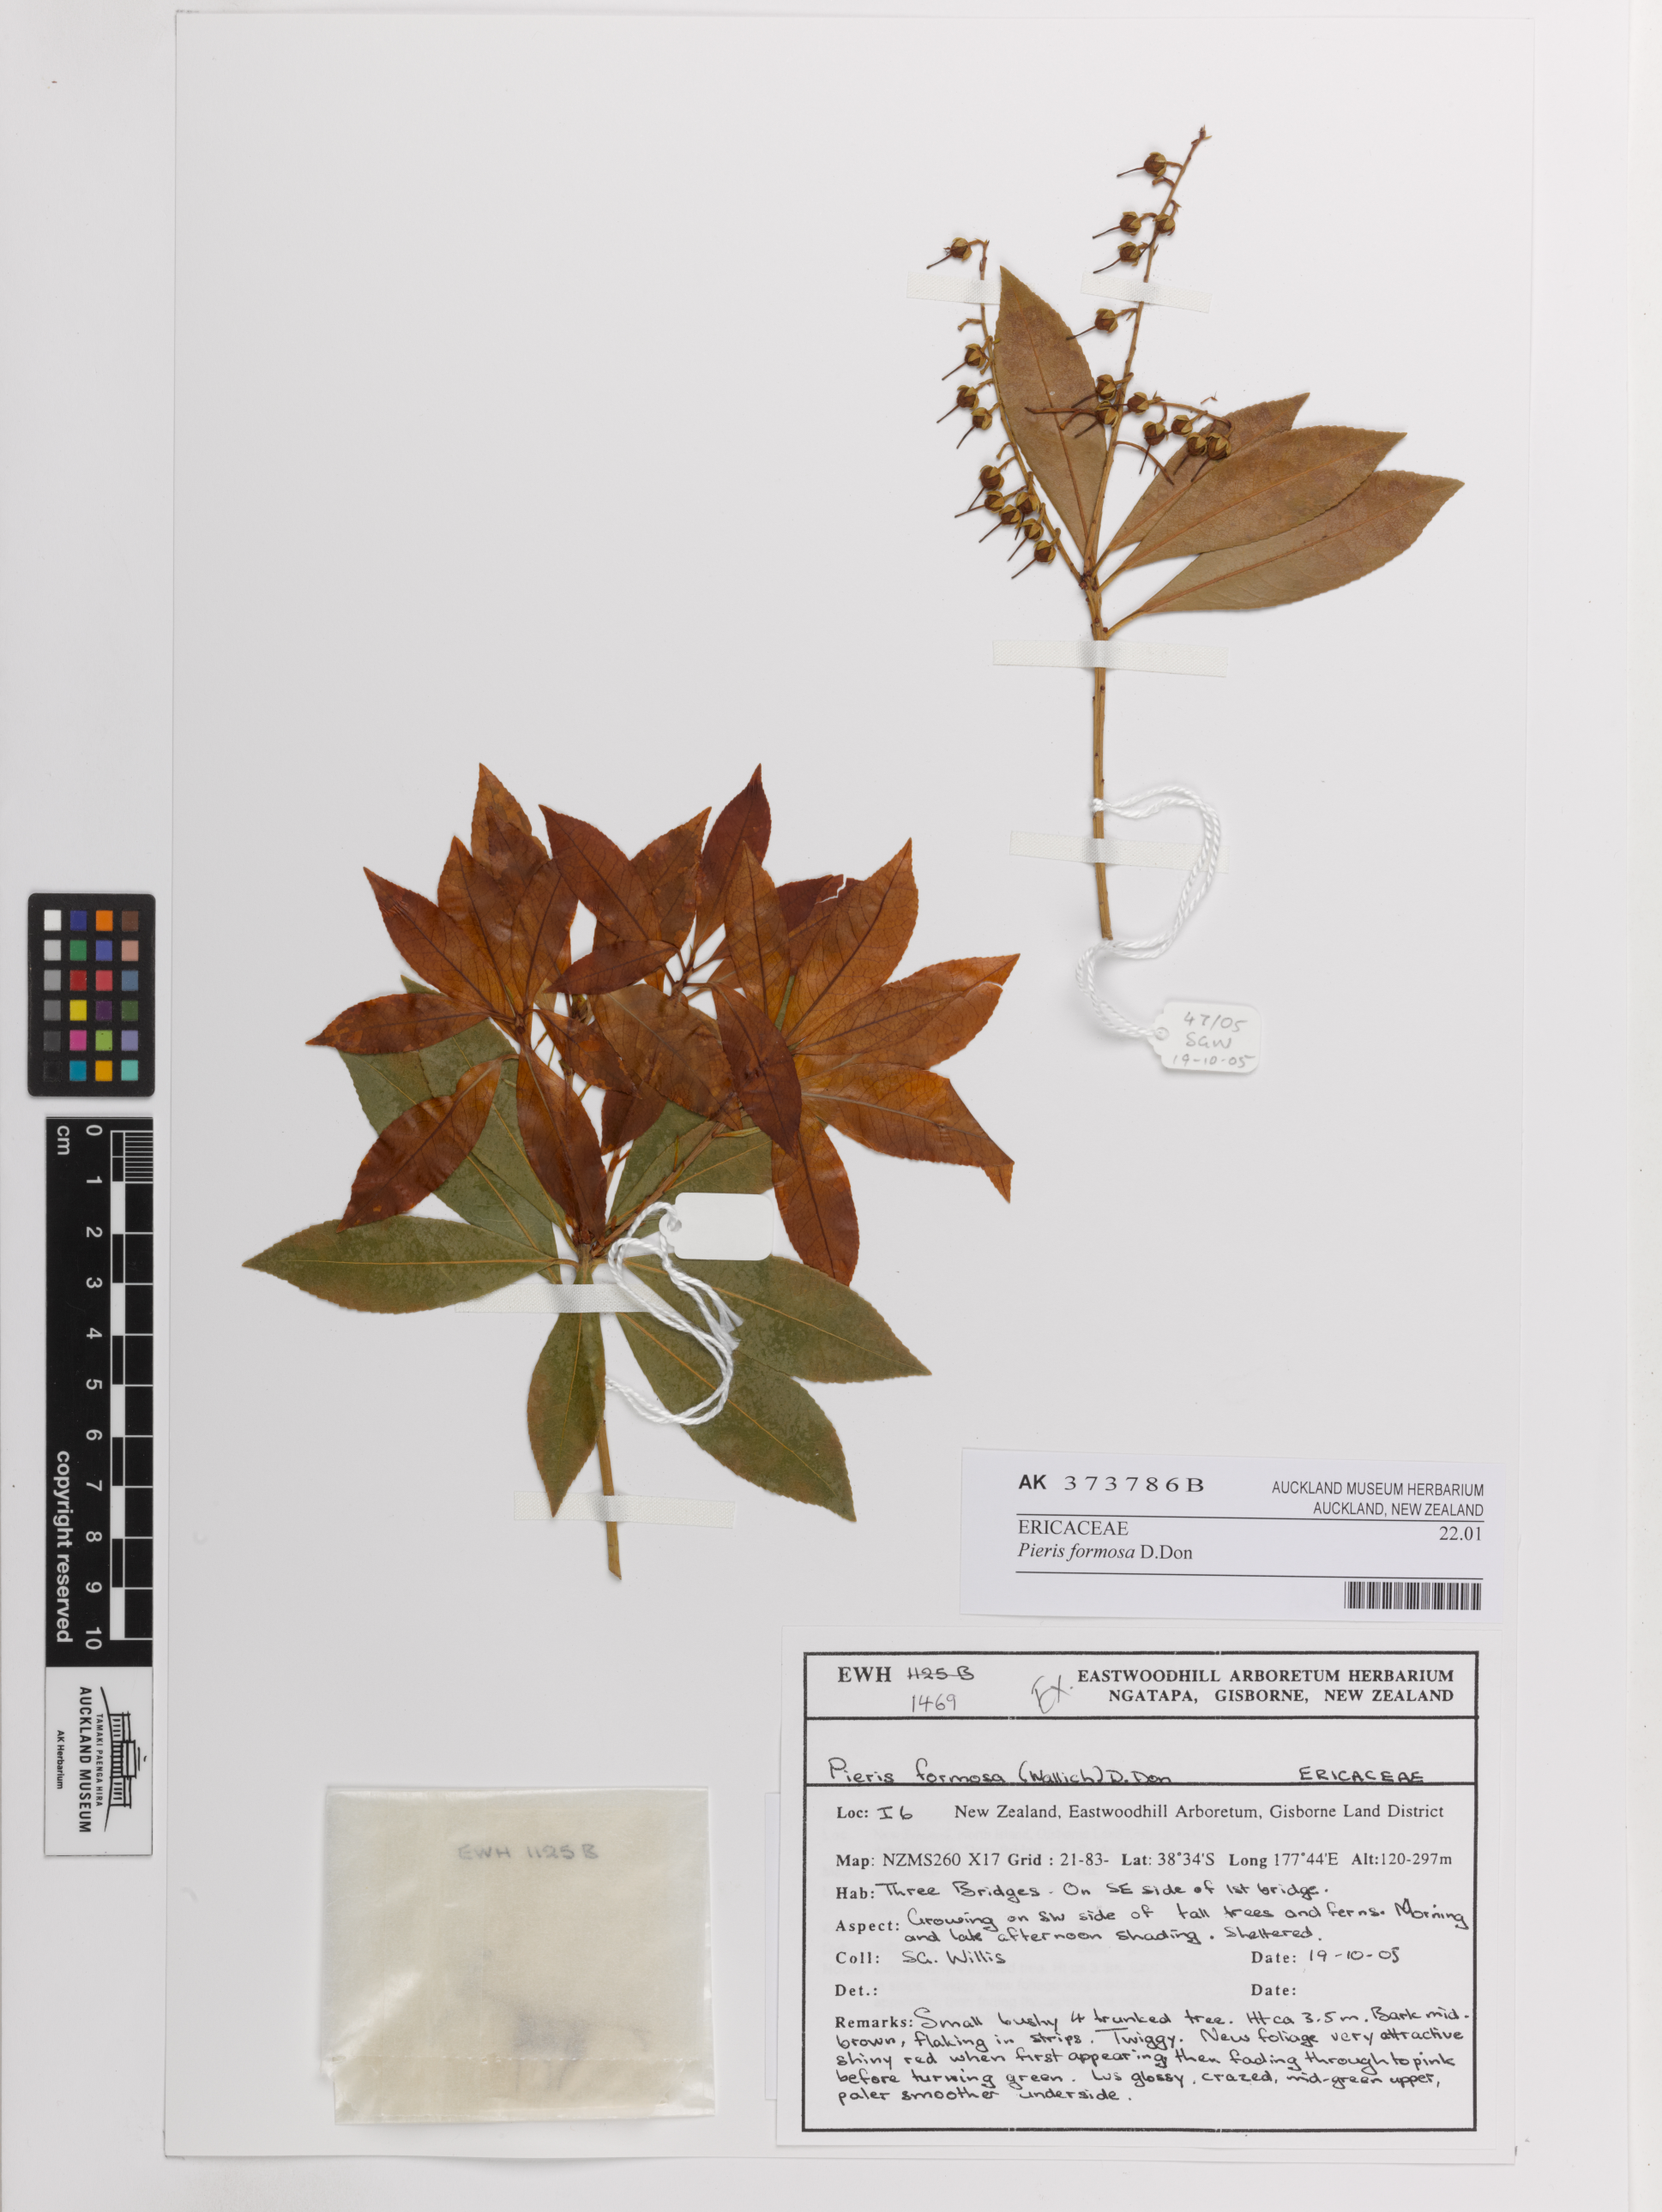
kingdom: Plantae
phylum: Tracheophyta
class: Magnoliopsida
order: Ericales
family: Ericaceae
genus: Pieris
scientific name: Pieris formosa
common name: Formosan pieris
